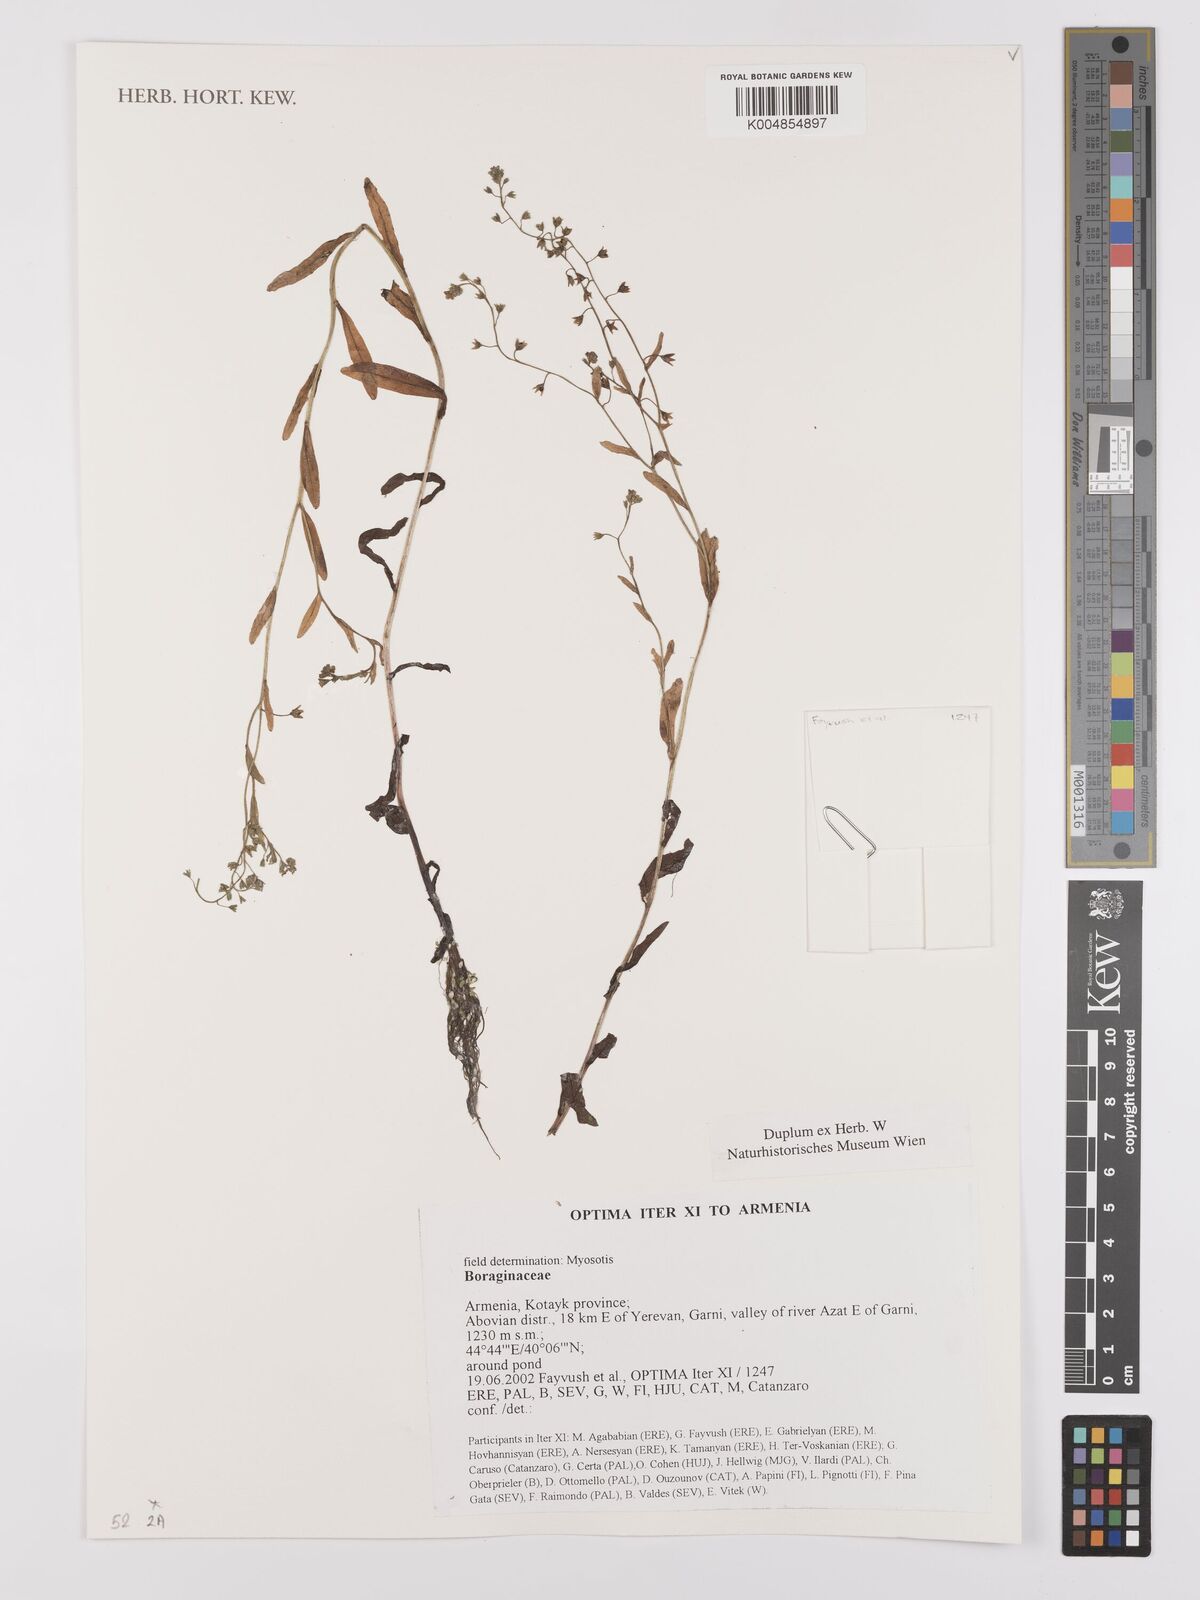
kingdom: Plantae
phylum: Tracheophyta
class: Magnoliopsida
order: Boraginales
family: Boraginaceae
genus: Myosotis
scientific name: Myosotis
